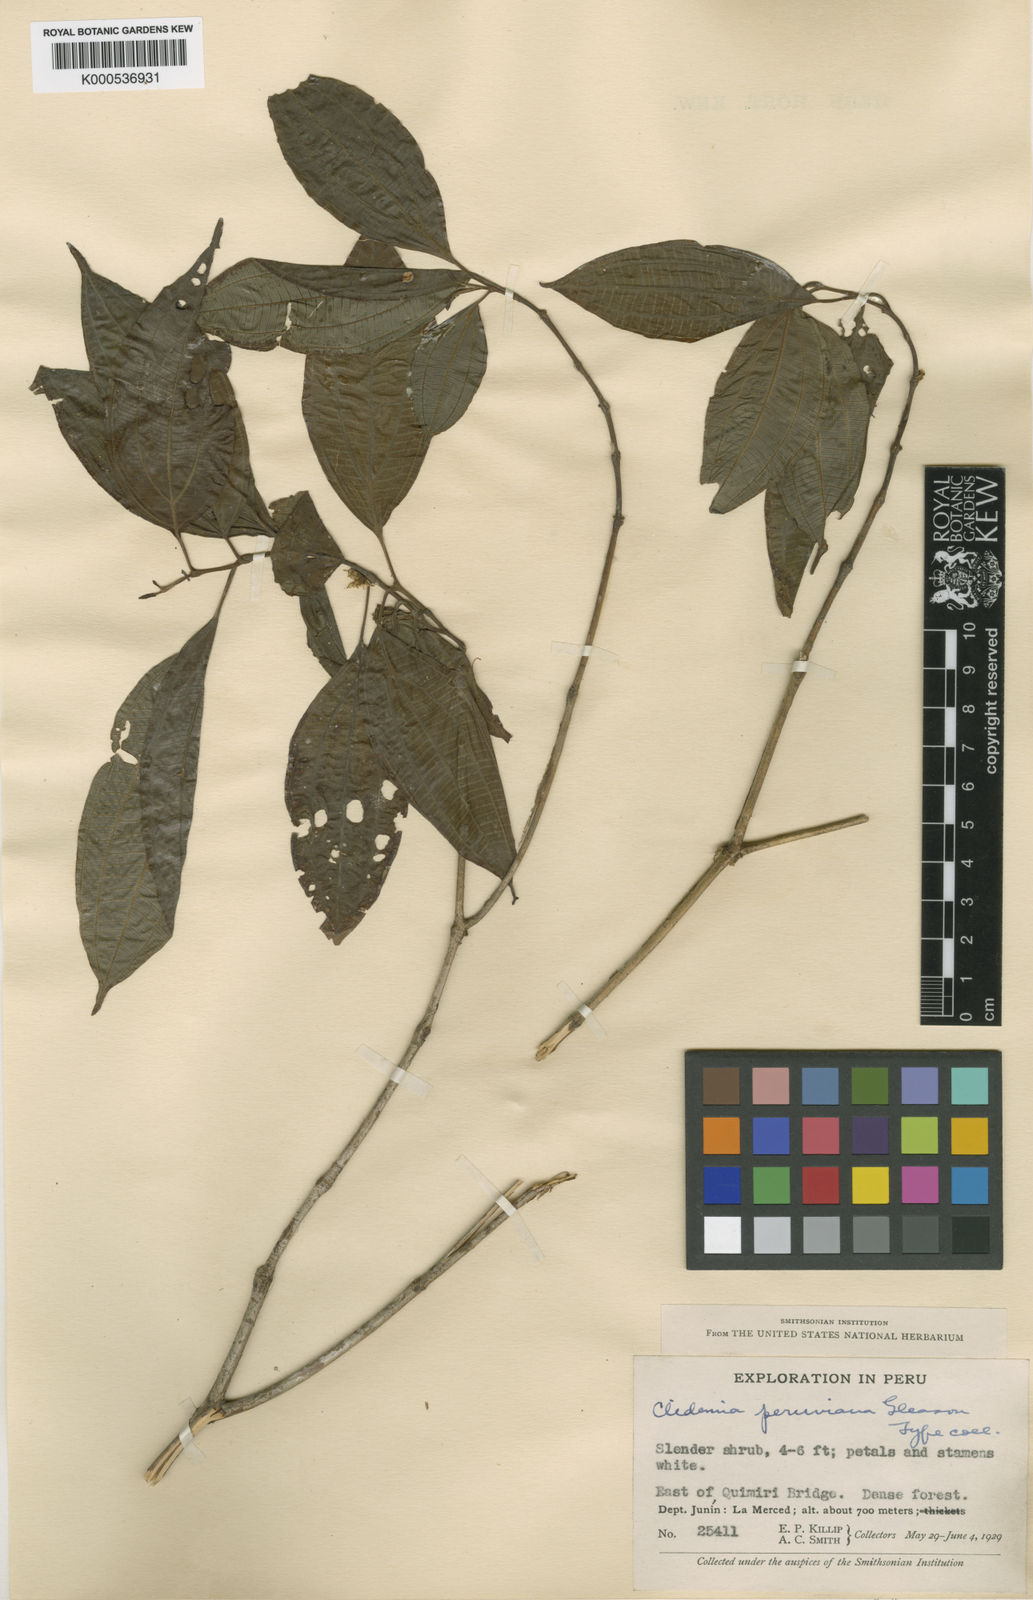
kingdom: Plantae
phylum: Tracheophyta
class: Magnoliopsida
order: Myrtales
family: Melastomataceae
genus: Miconia
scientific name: Miconia sessiliflora
